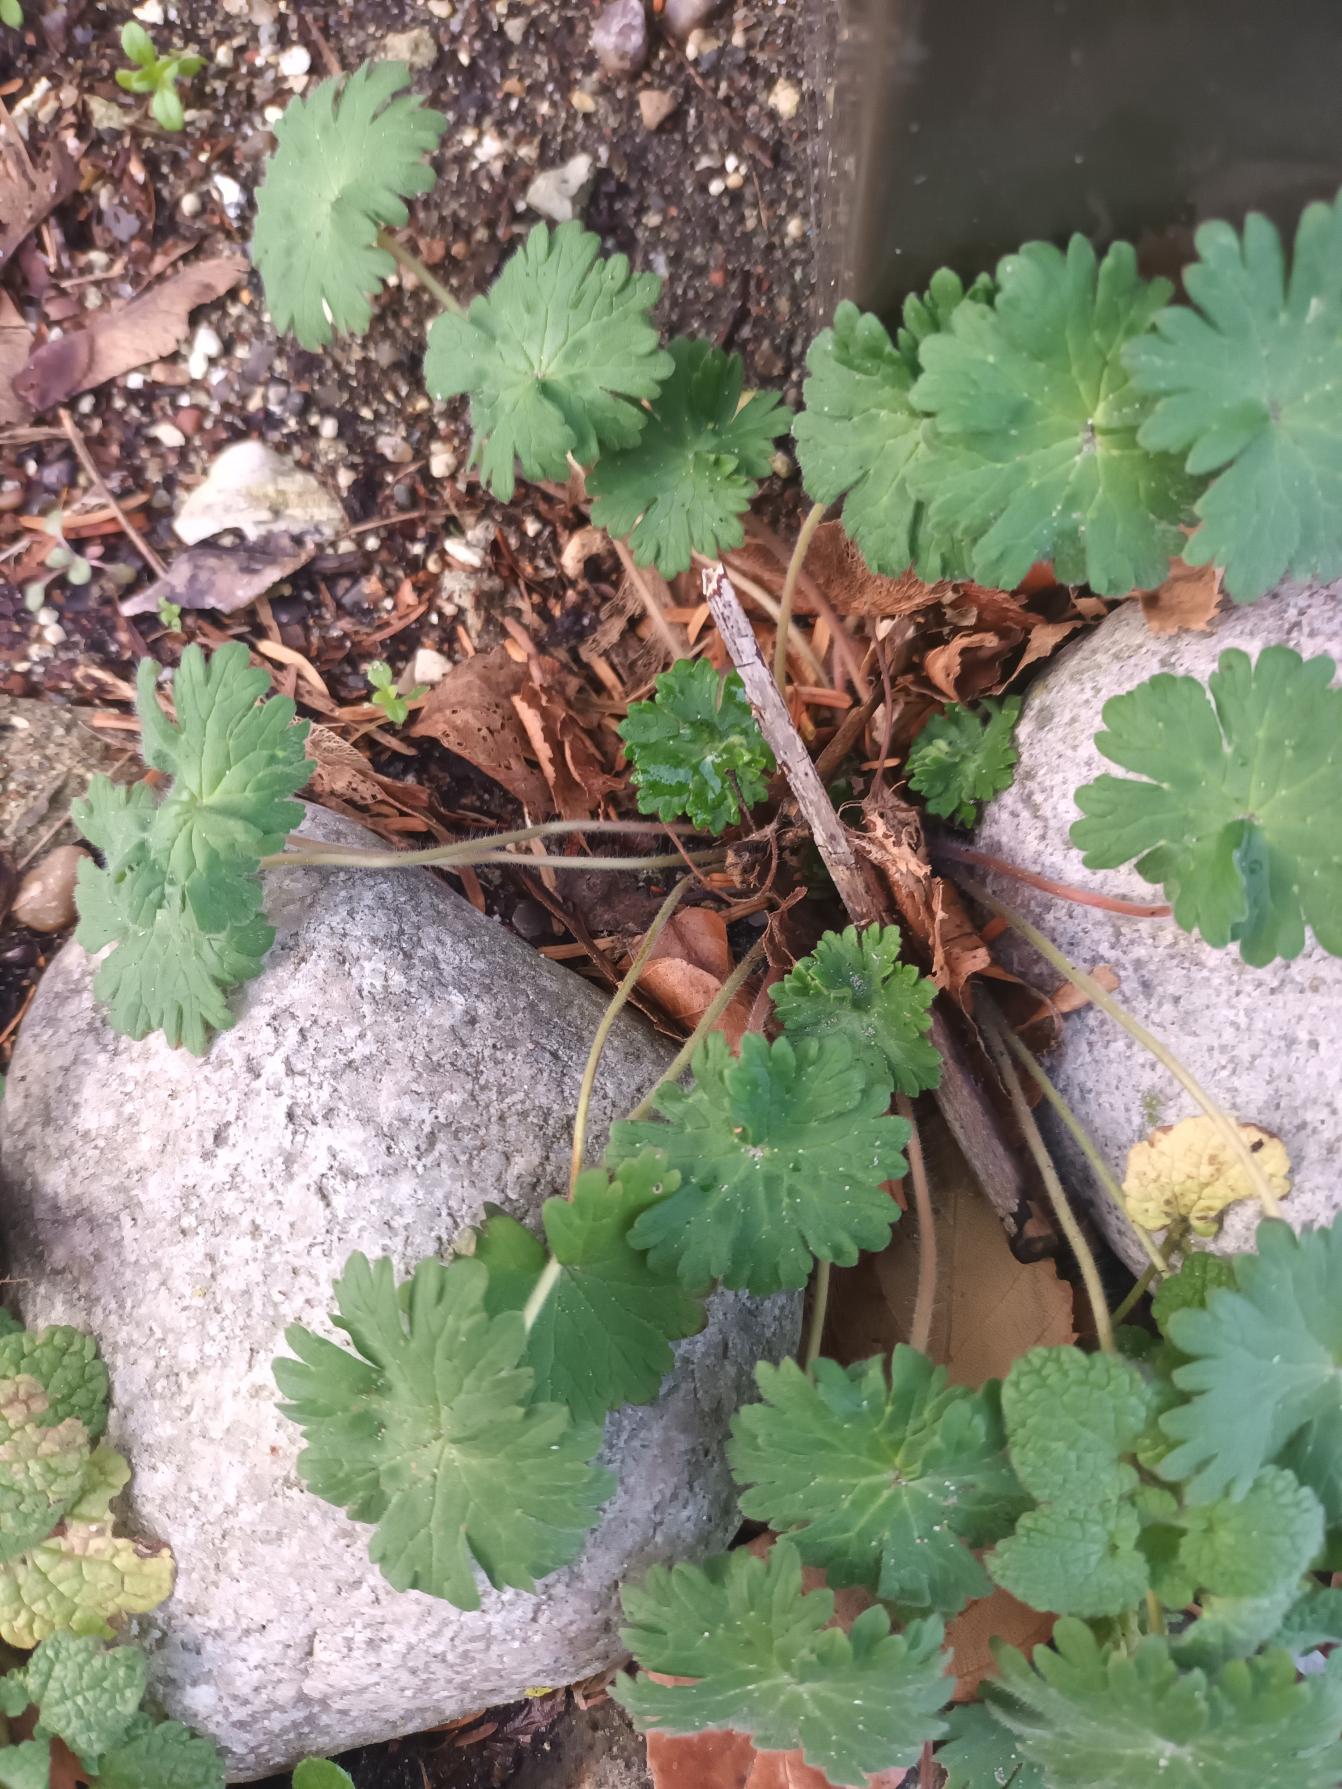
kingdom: Plantae
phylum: Tracheophyta
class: Magnoliopsida
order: Geraniales
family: Geraniaceae
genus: Geranium
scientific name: Geranium molle
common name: Blød storkenæb
